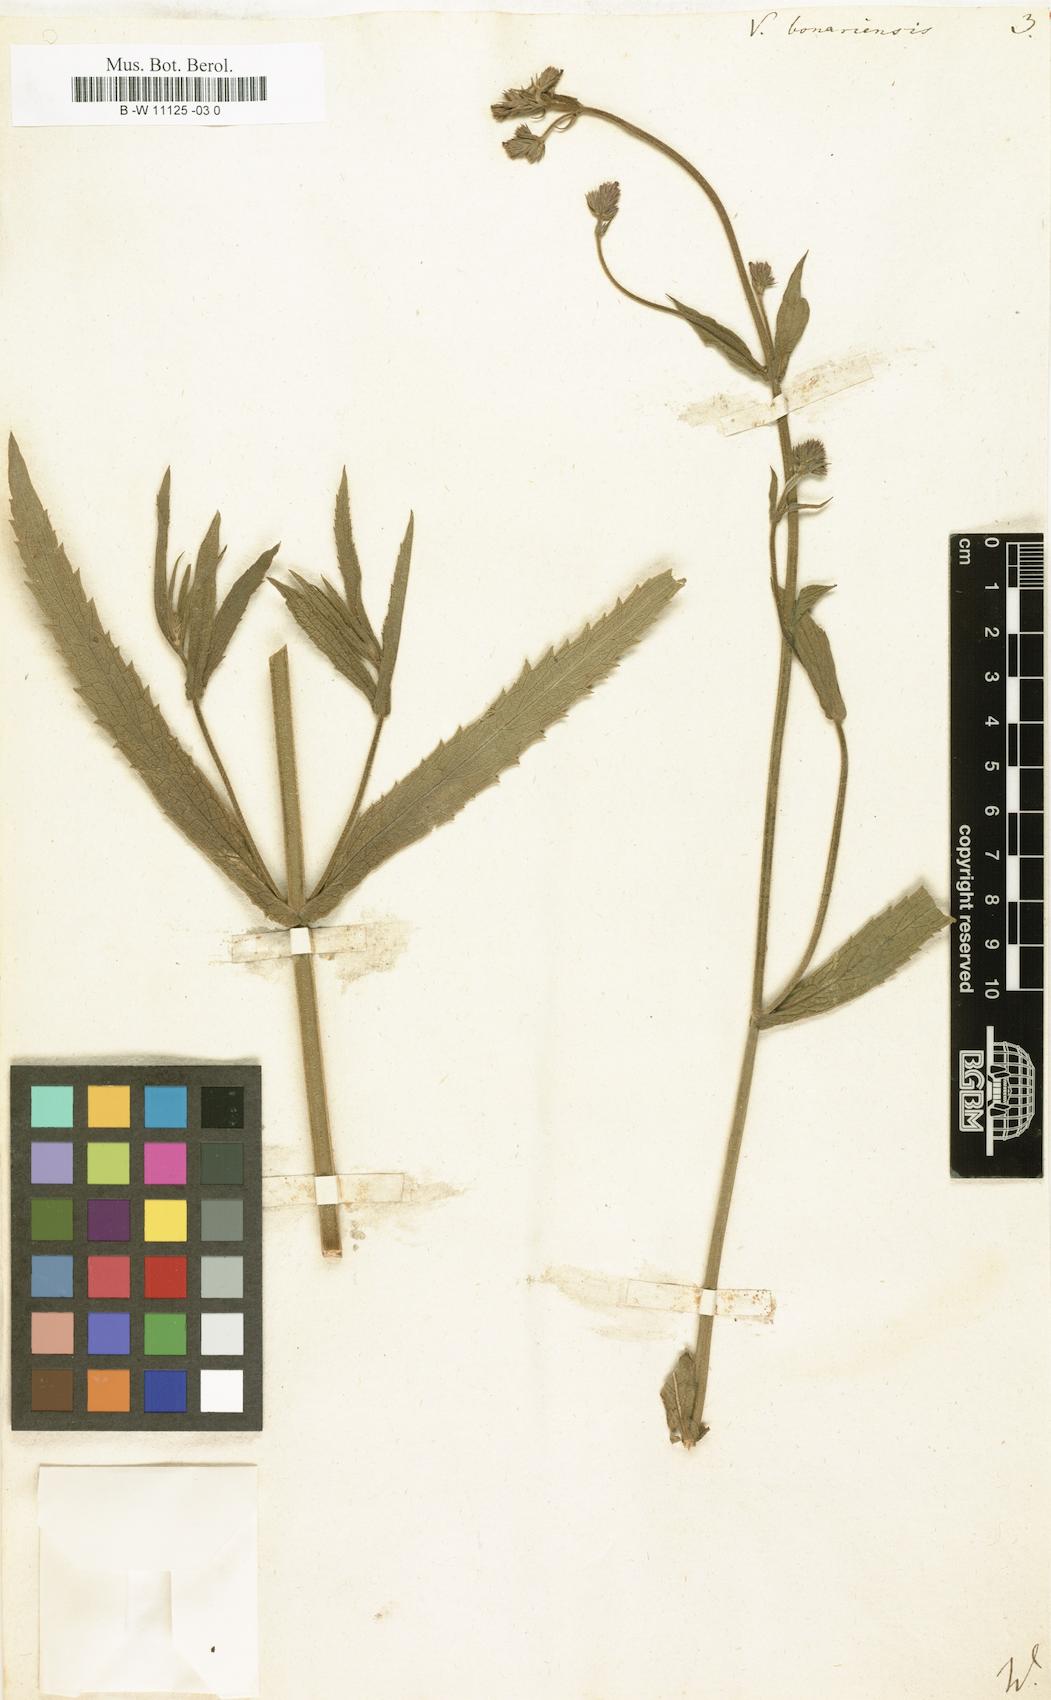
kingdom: Plantae
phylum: Tracheophyta
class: Magnoliopsida
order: Lamiales
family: Verbenaceae
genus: Verbena
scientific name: Verbena bonariensis
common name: Purpletop vervain
